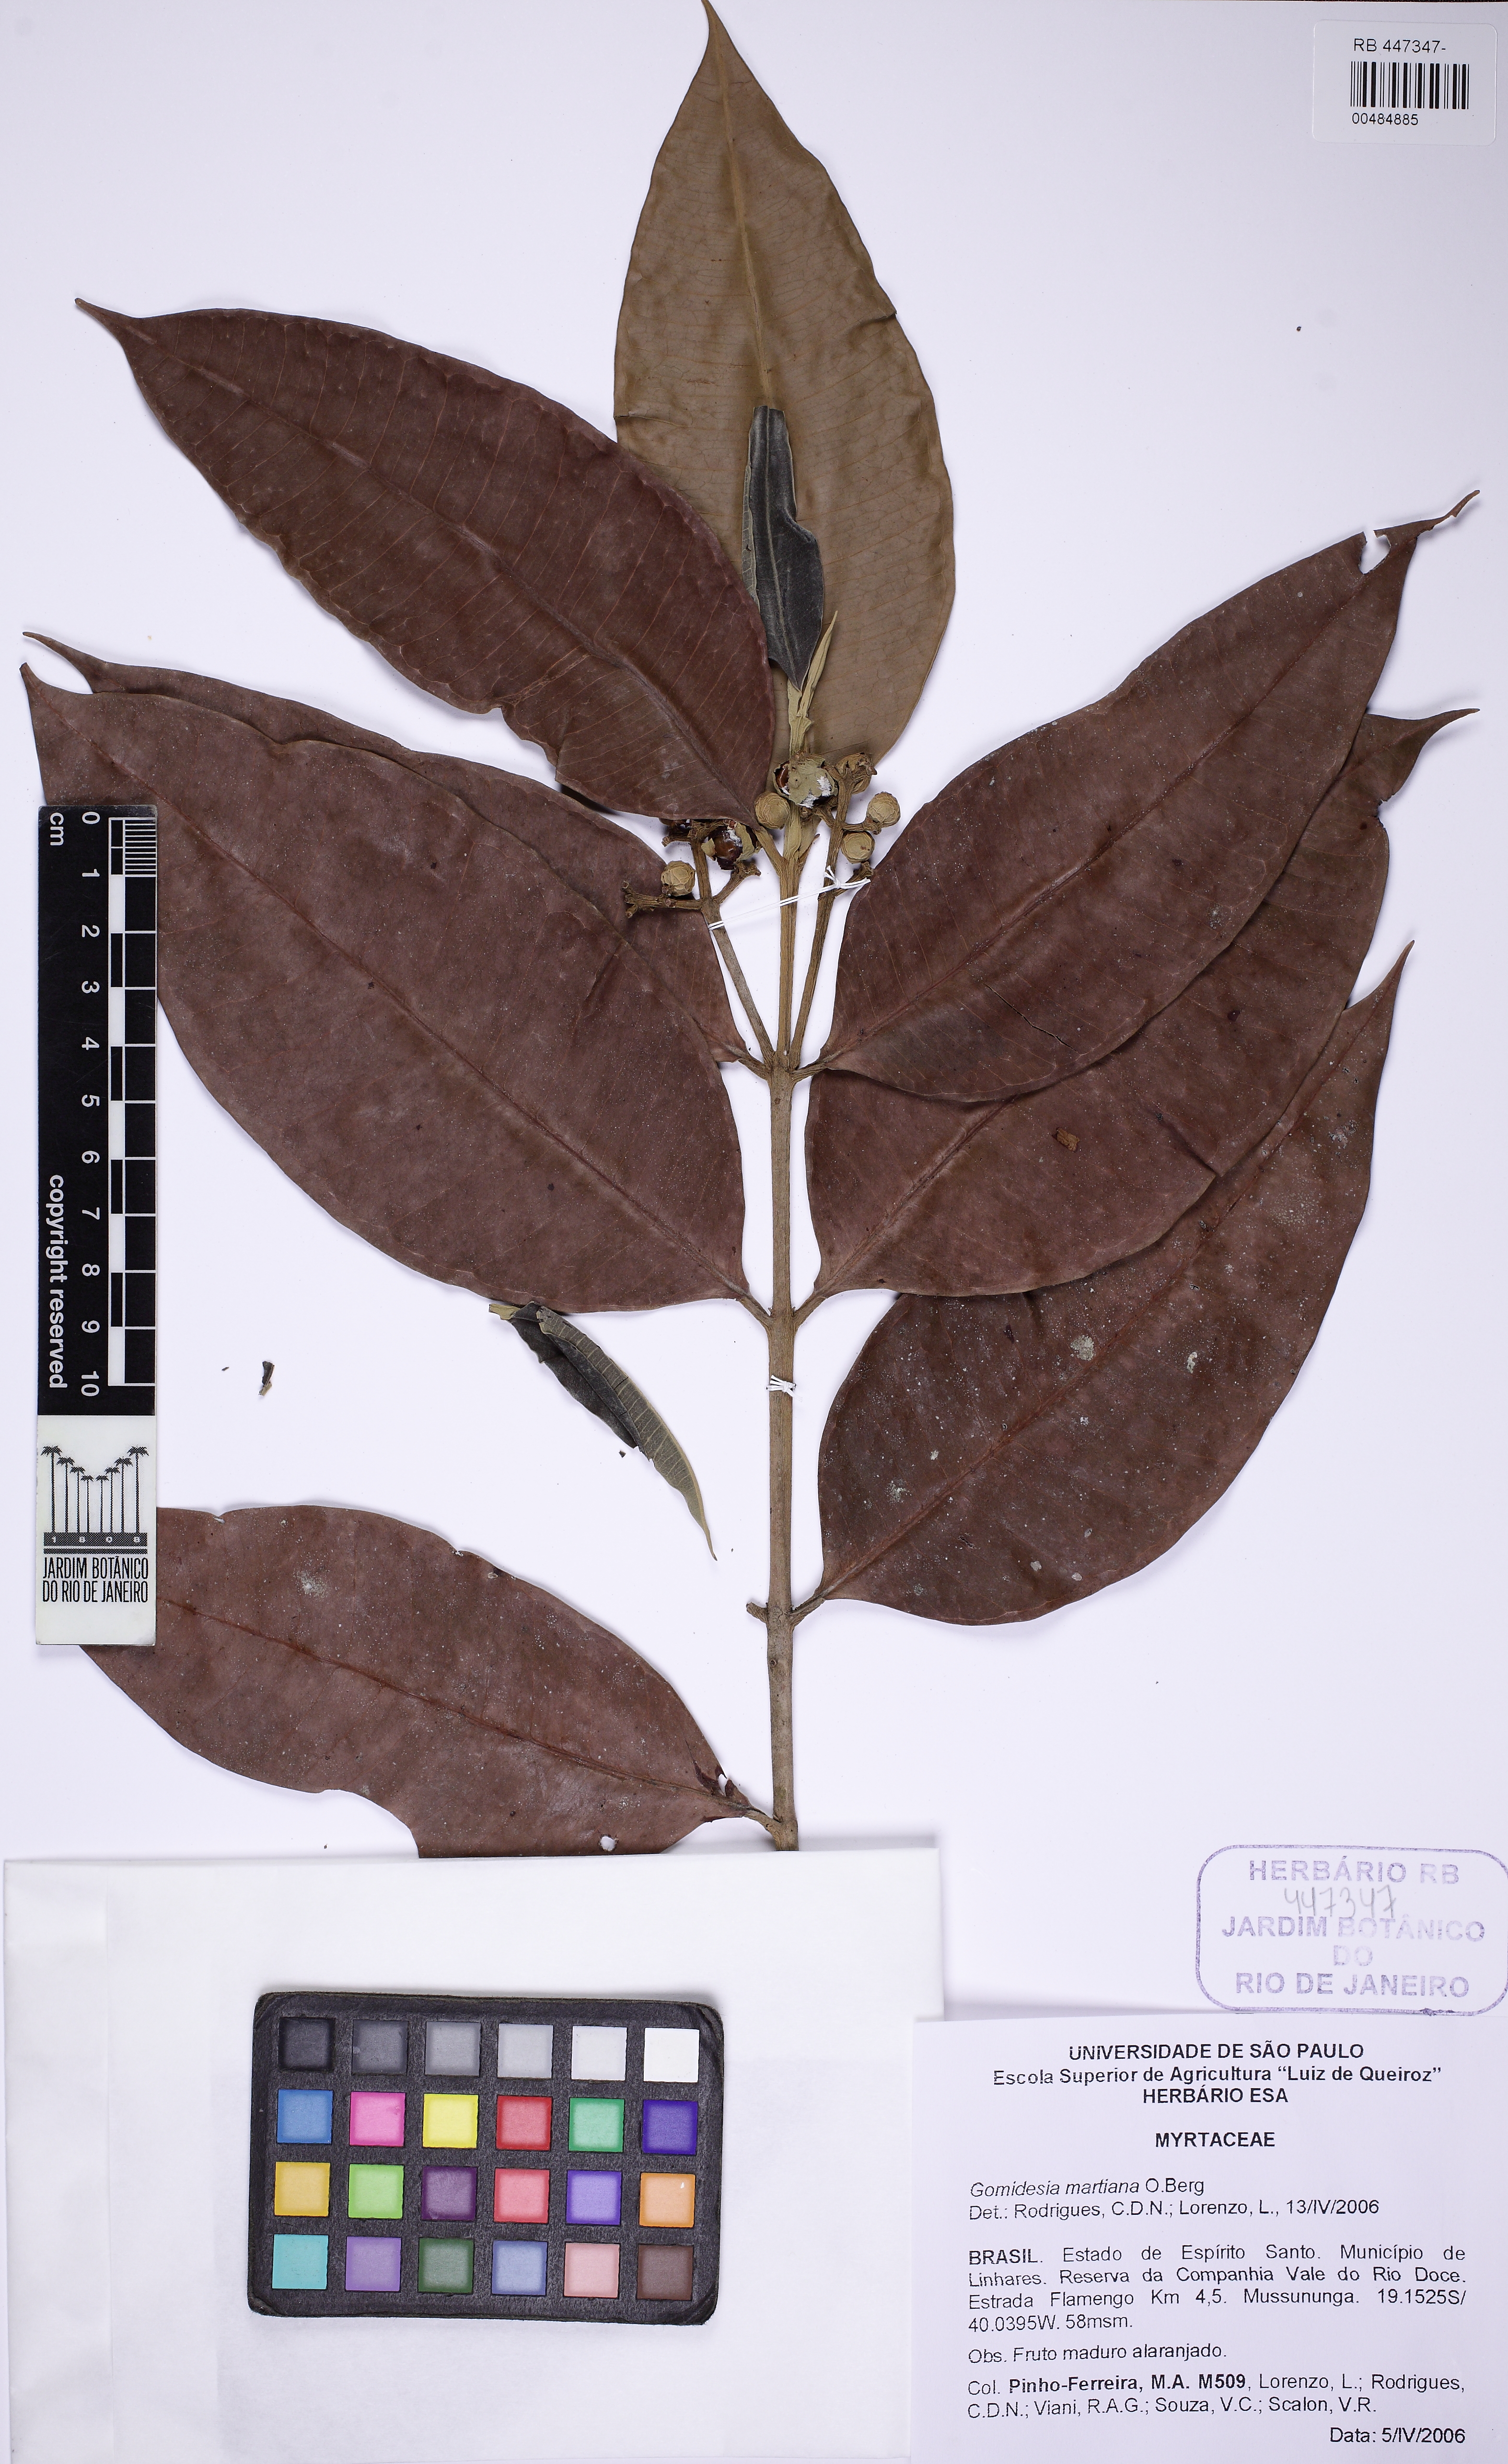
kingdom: Plantae
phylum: Tracheophyta
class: Magnoliopsida
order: Myrtales
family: Myrtaceae
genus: Myrcia
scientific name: Myrcia vittoriana
